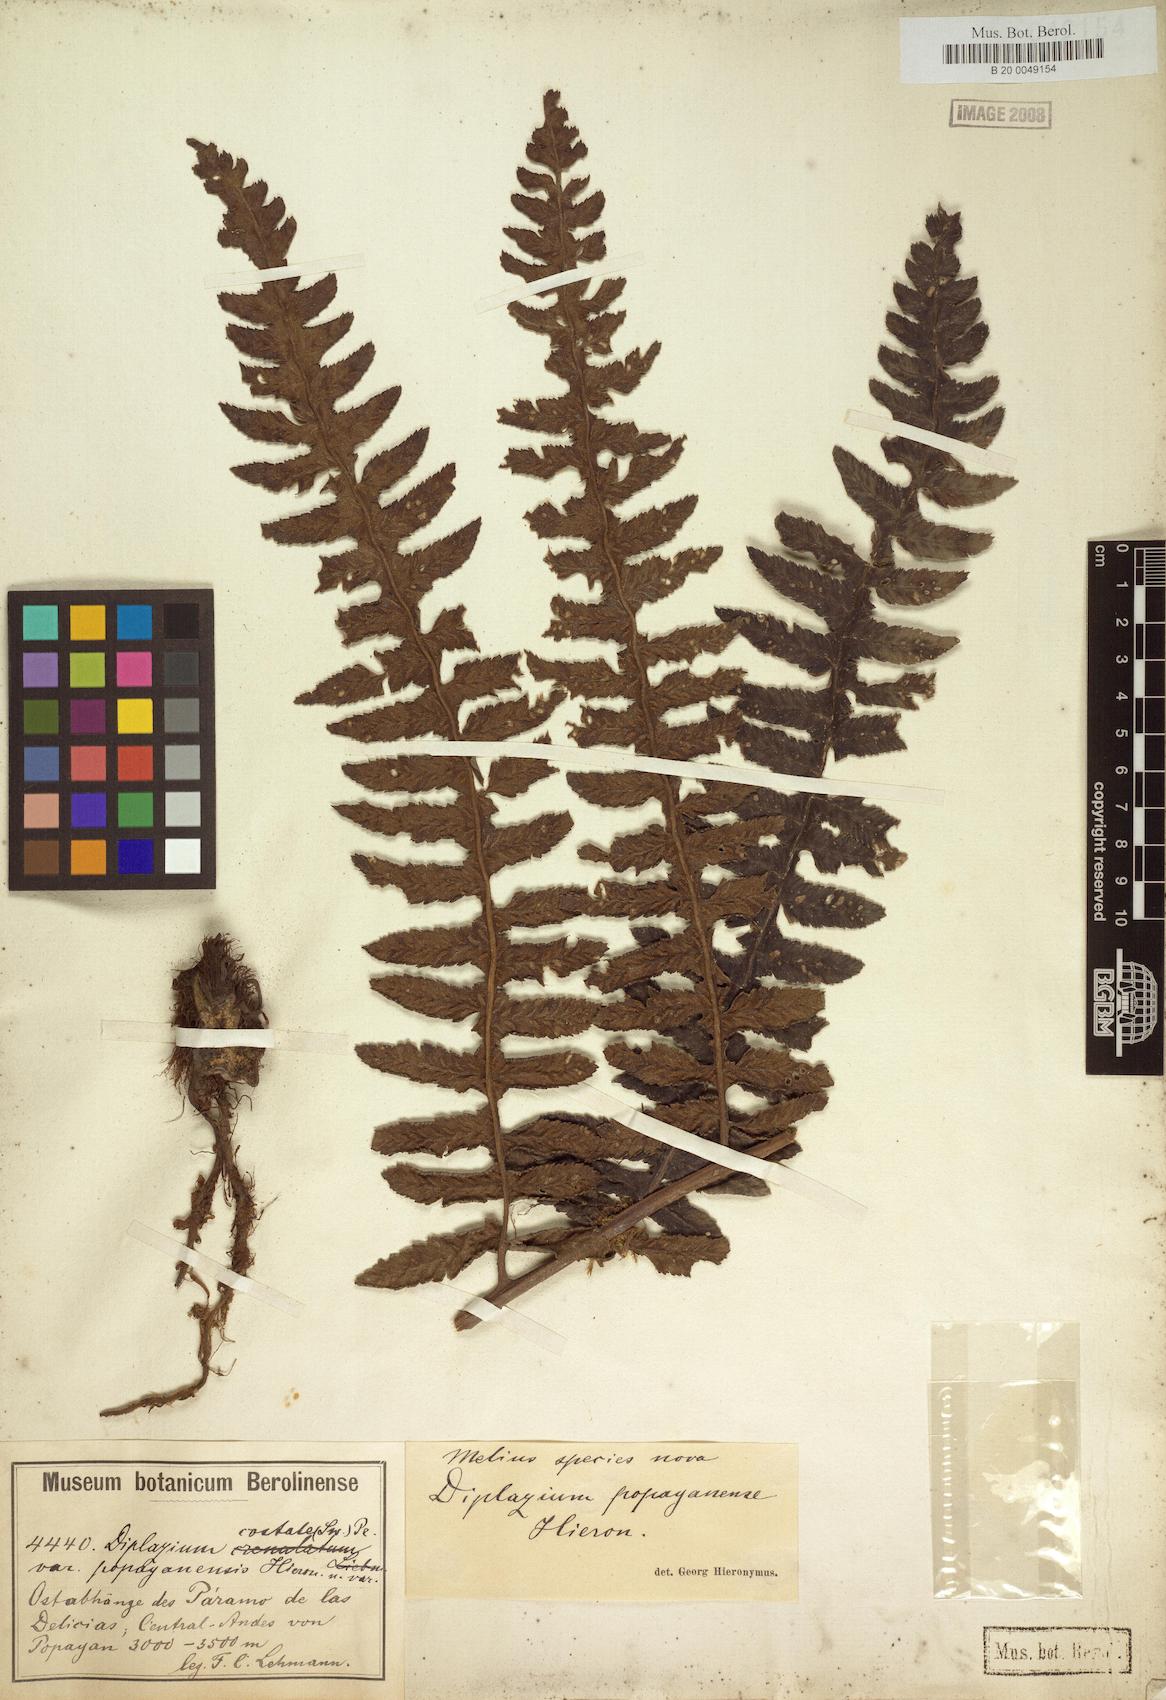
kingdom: Plantae
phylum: Tracheophyta
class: Polypodiopsida
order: Polypodiales
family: Athyriaceae
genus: Diplazium
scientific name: Diplazium popayanense
